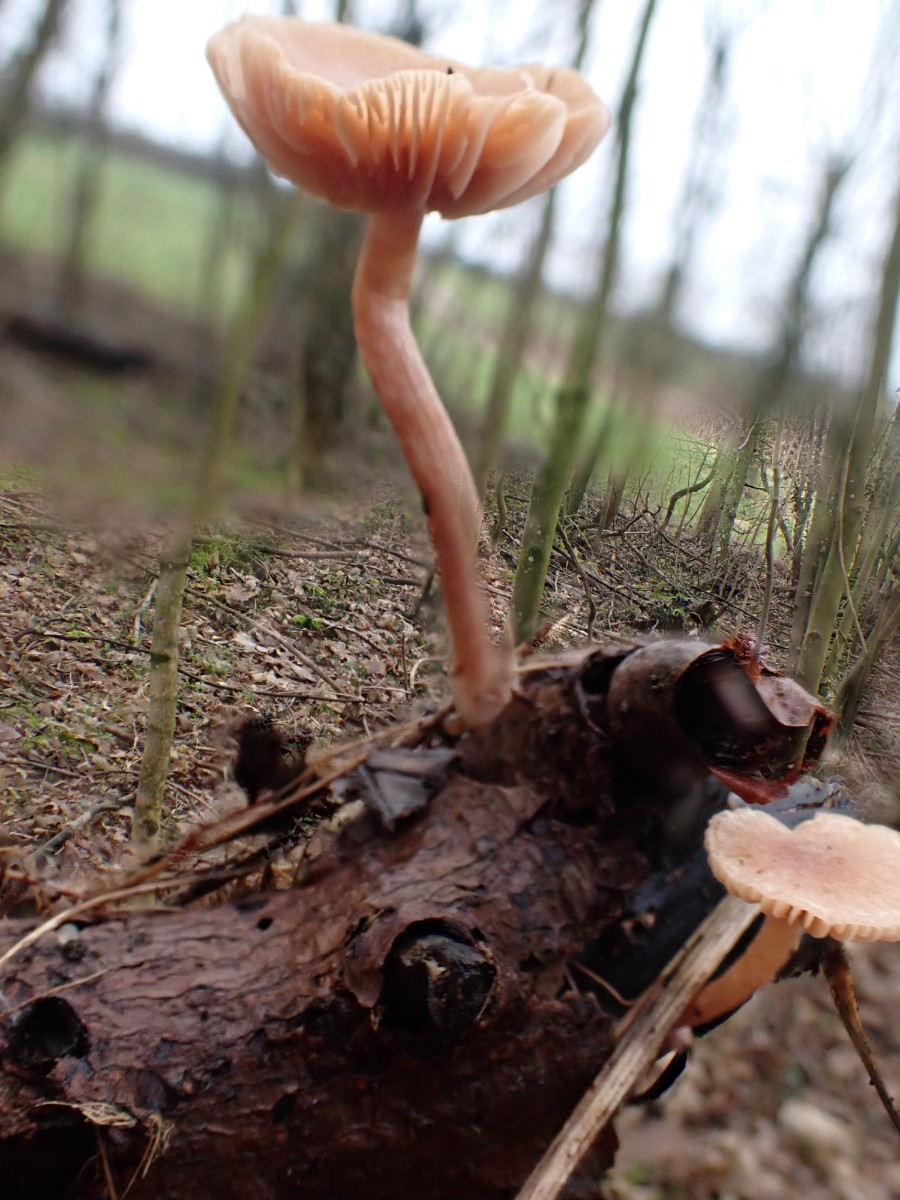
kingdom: Fungi
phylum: Basidiomycota
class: Agaricomycetes
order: Agaricales
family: Tubariaceae
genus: Tubaria
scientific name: Tubaria furfuracea
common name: kliddet fnughat
